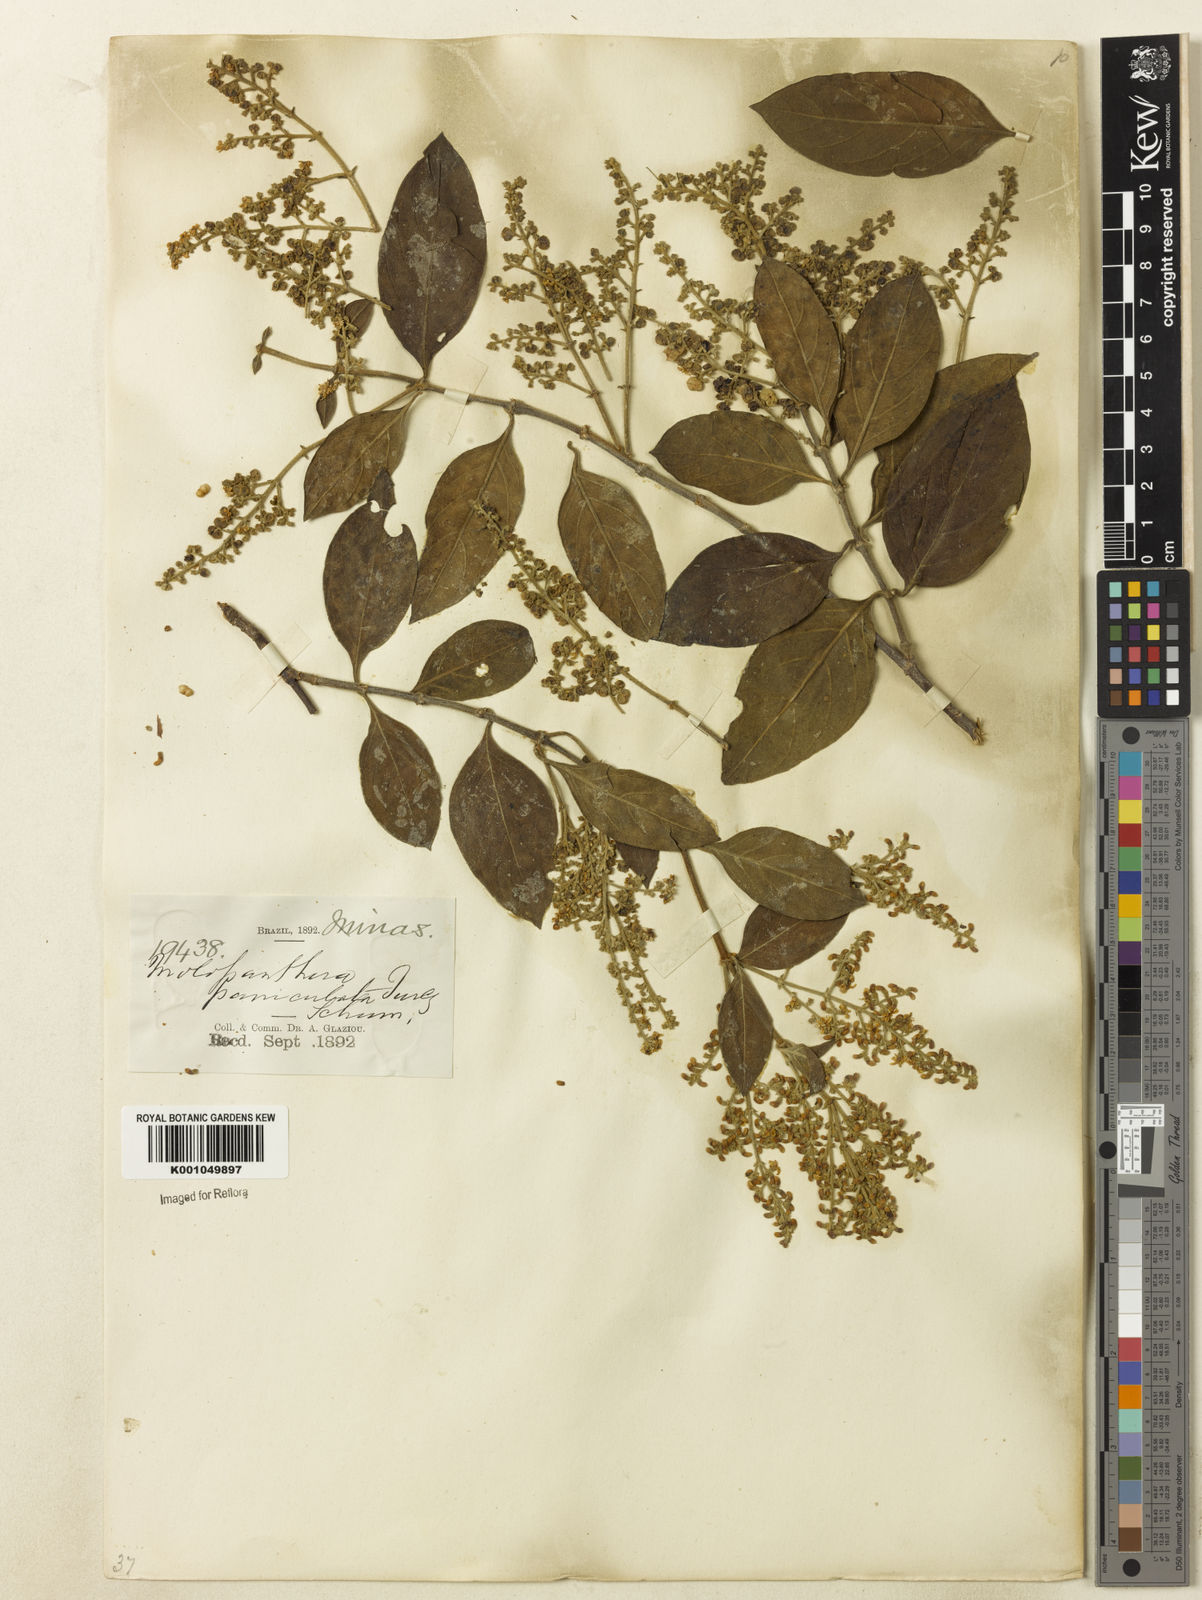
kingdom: Plantae
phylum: Tracheophyta
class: Magnoliopsida
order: Gentianales
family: Rubiaceae
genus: Molopanthera
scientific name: Molopanthera paniculata
